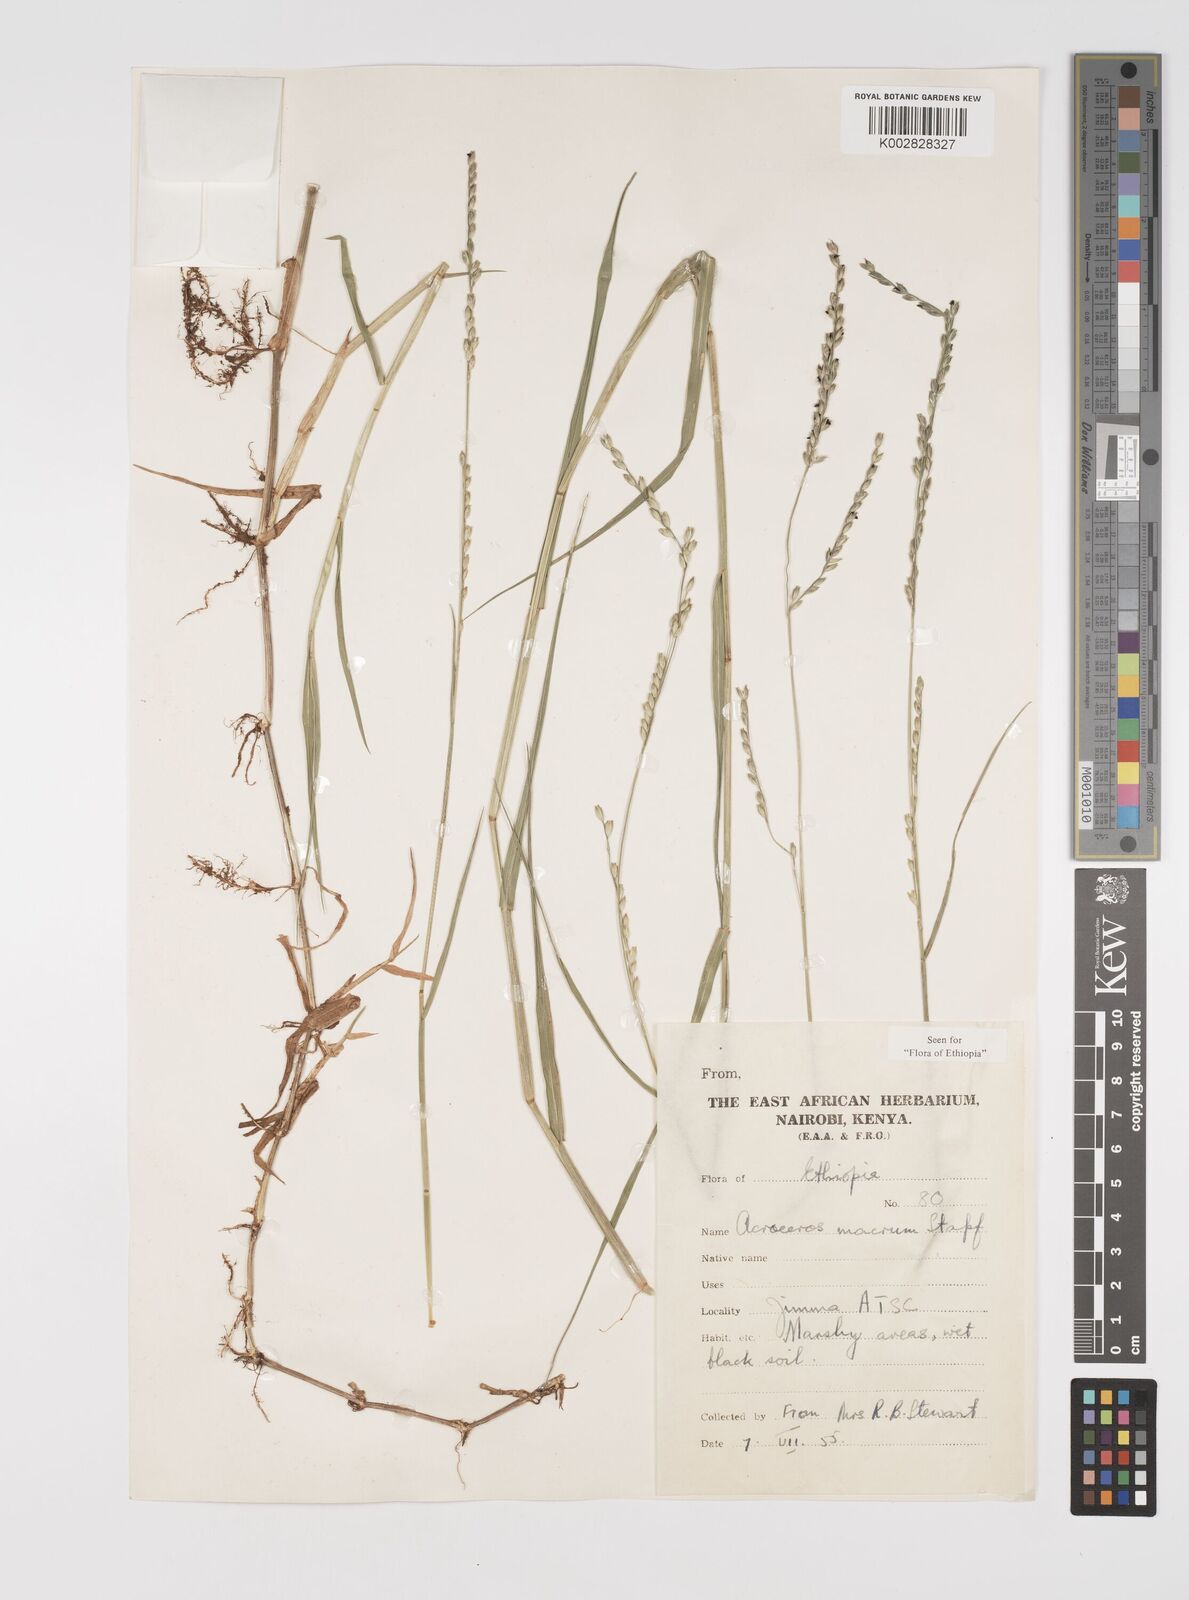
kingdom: Plantae
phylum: Tracheophyta
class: Liliopsida
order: Poales
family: Poaceae
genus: Acroceras
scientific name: Acroceras macrum
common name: Nyl grass
